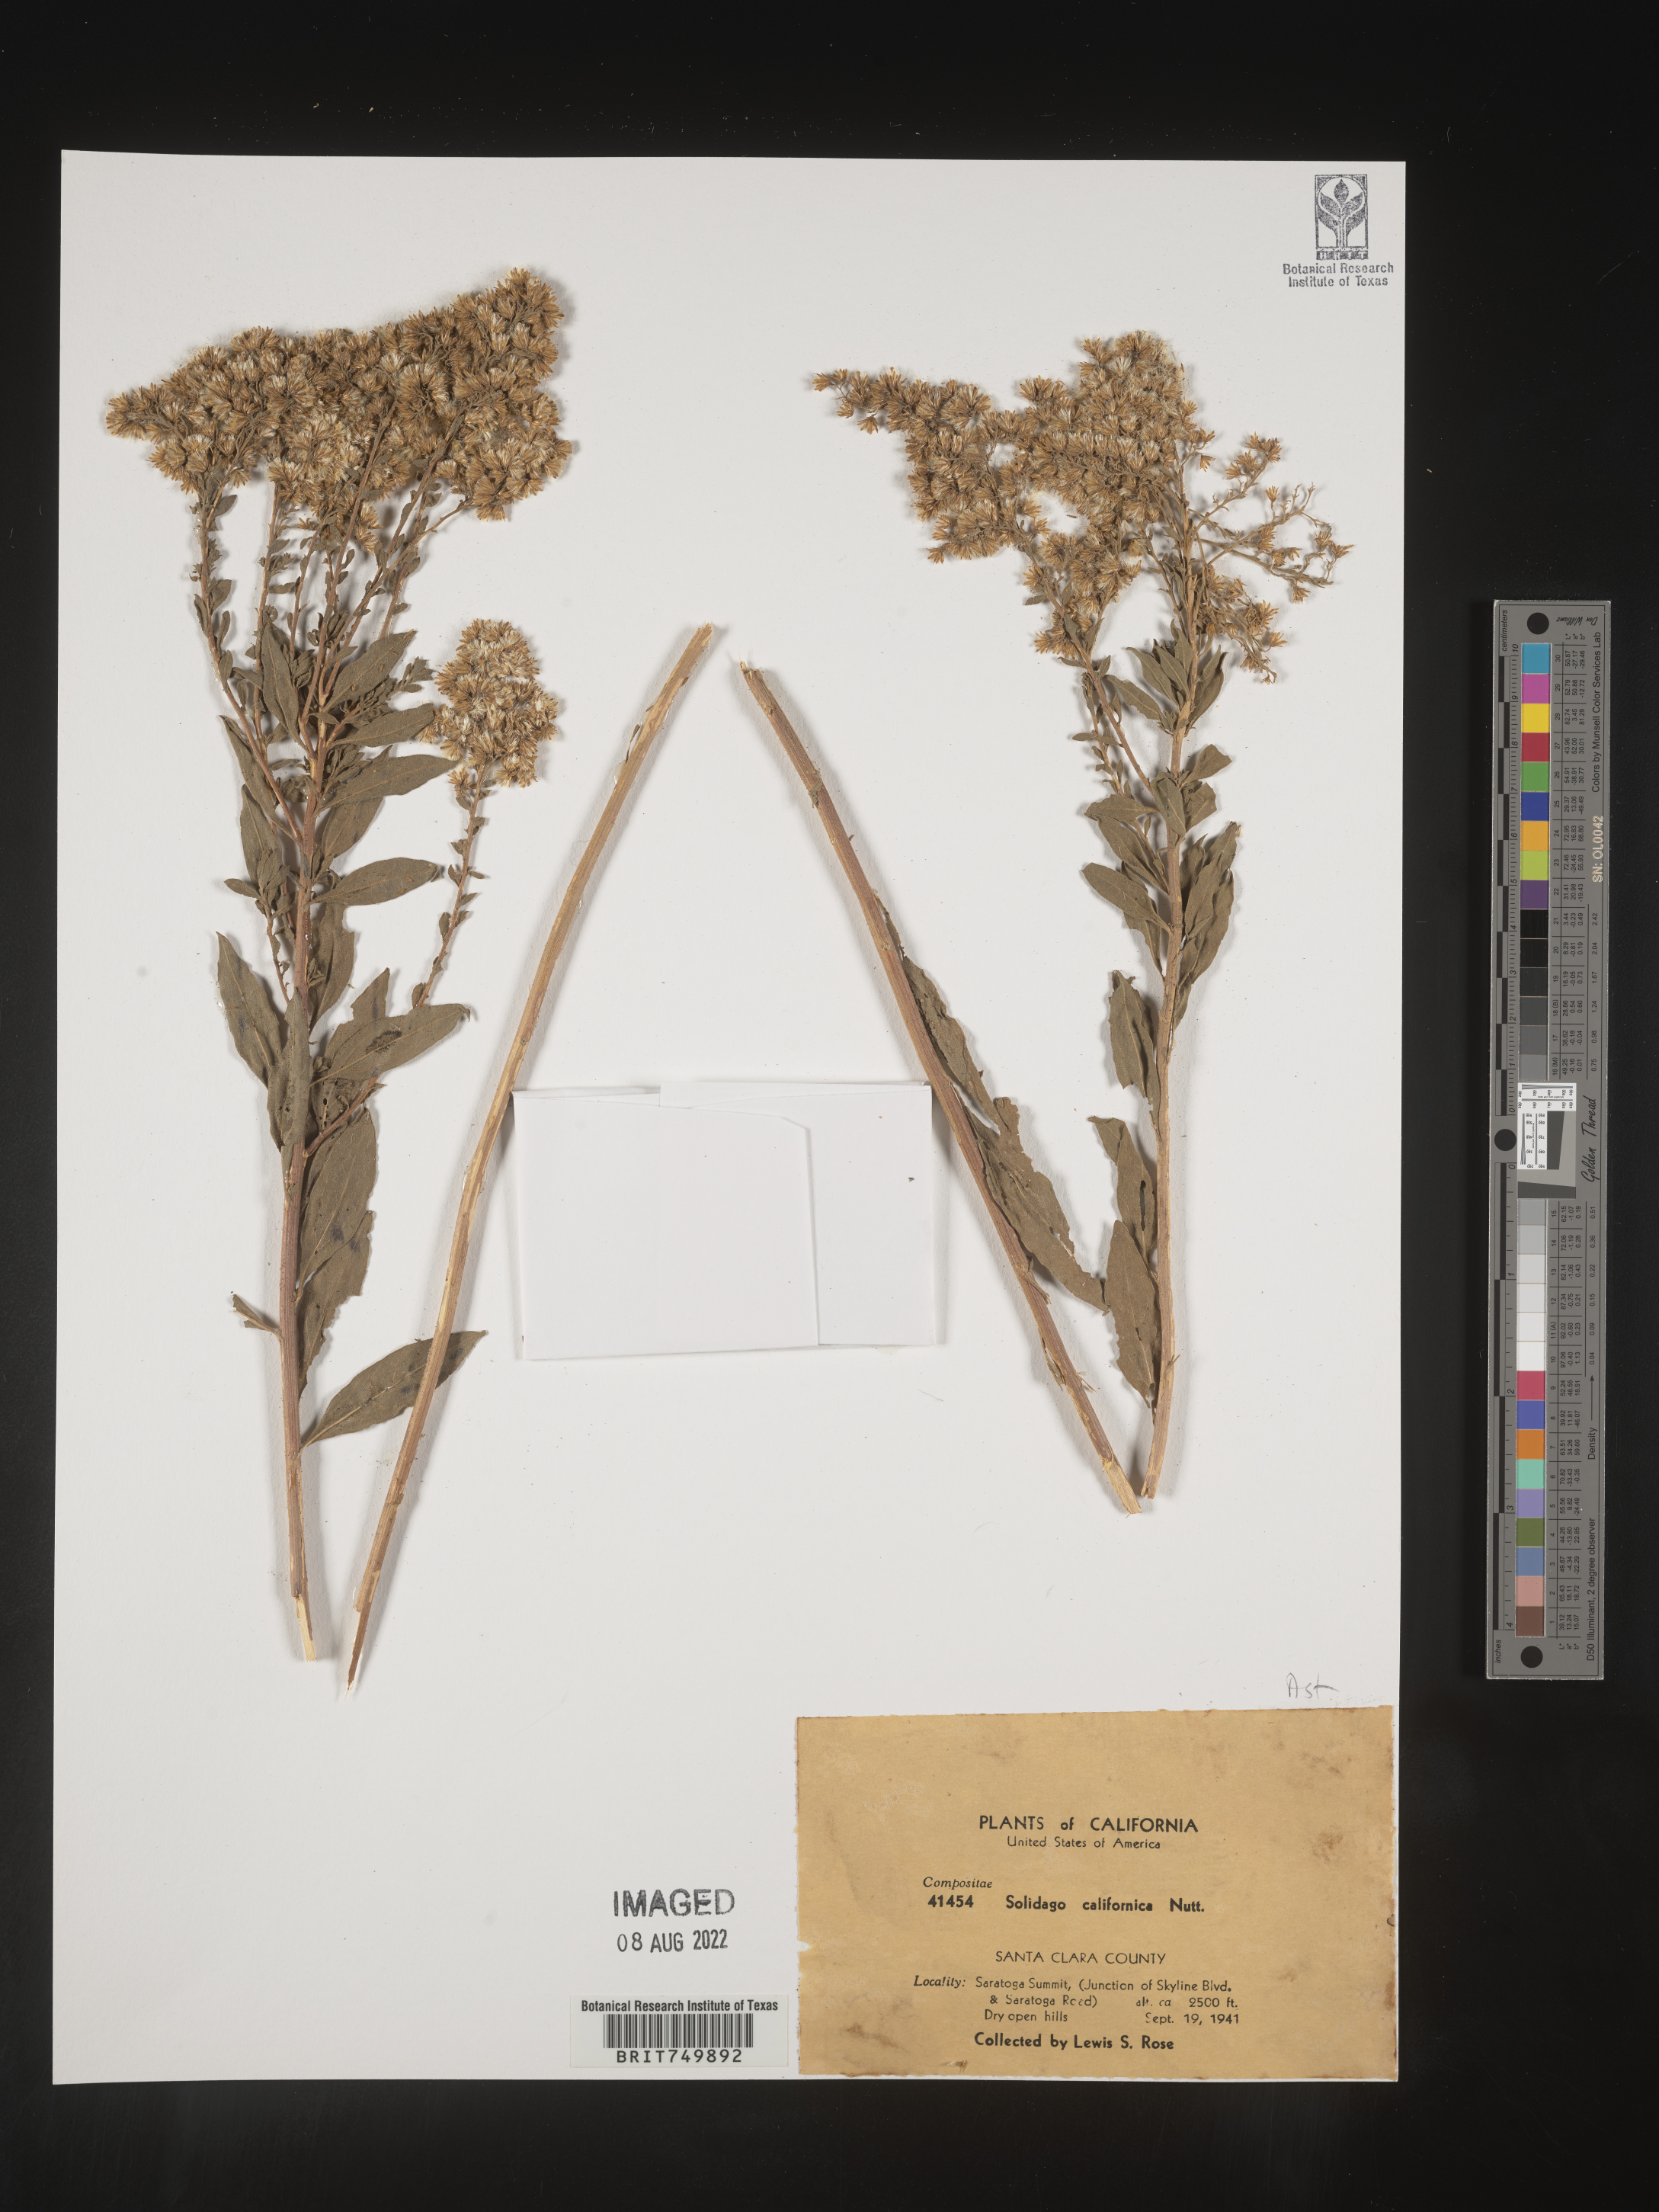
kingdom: Plantae
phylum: Tracheophyta
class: Magnoliopsida
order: Asterales
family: Asteraceae
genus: Solidago
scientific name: Solidago californica
